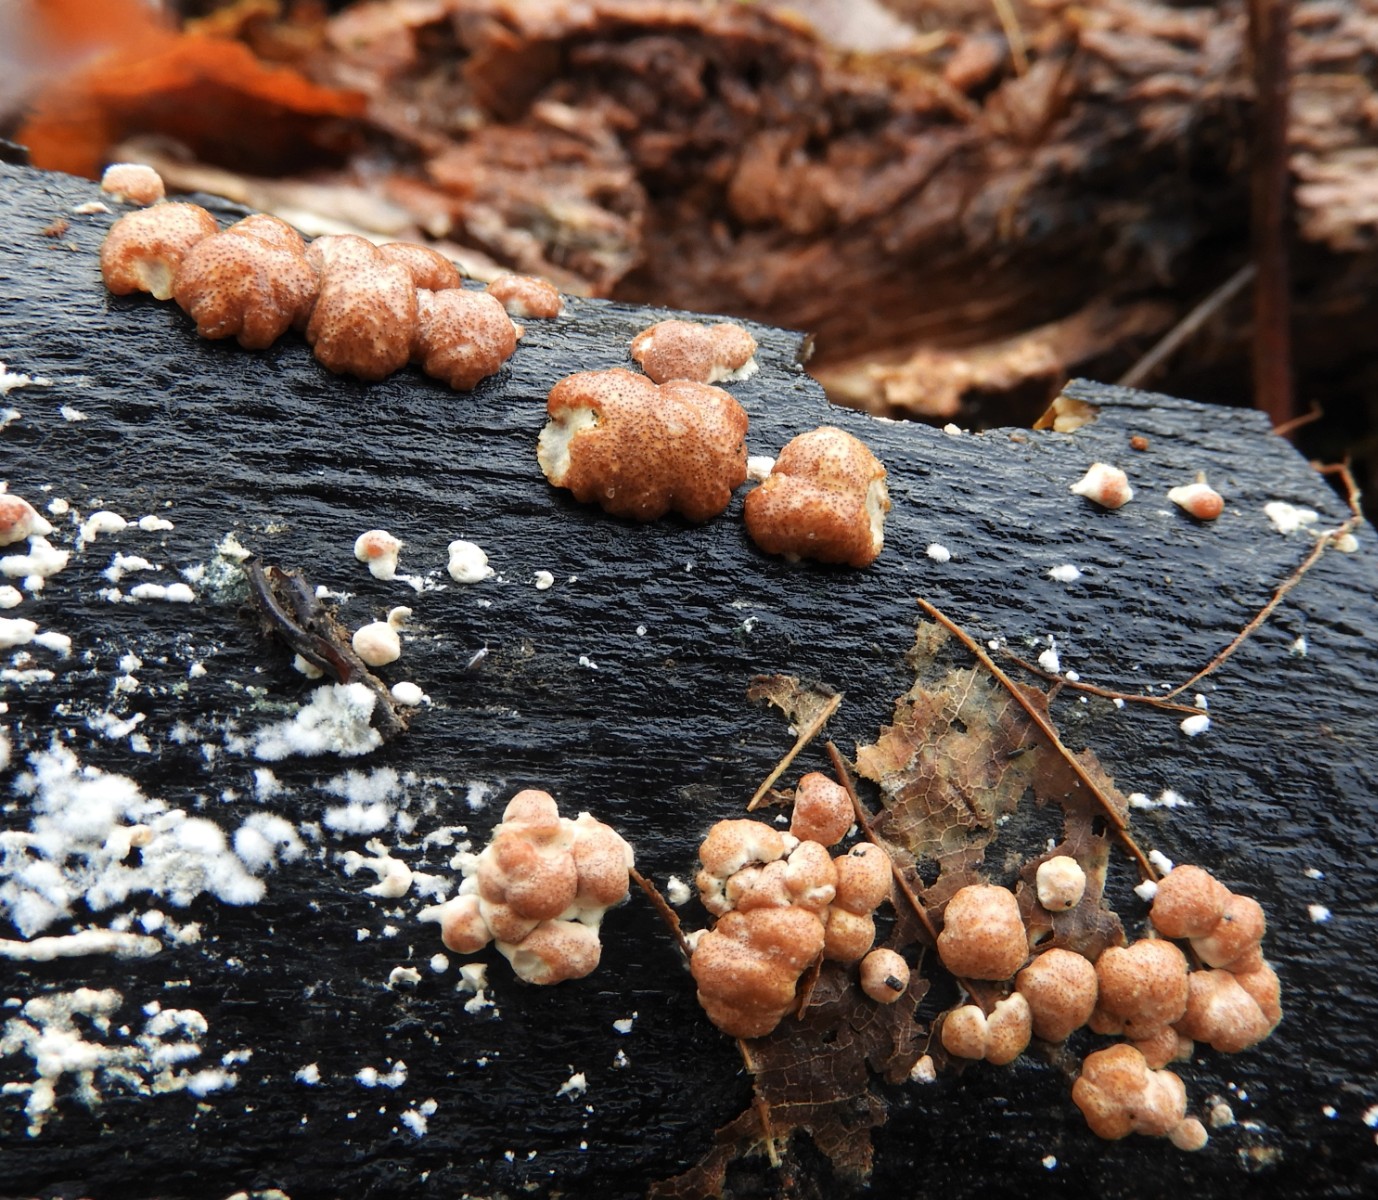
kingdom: Fungi
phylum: Ascomycota
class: Sordariomycetes
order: Hypocreales
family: Hypocreaceae
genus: Trichoderma
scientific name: Trichoderma europaeum
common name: rosabrun kødkerne
